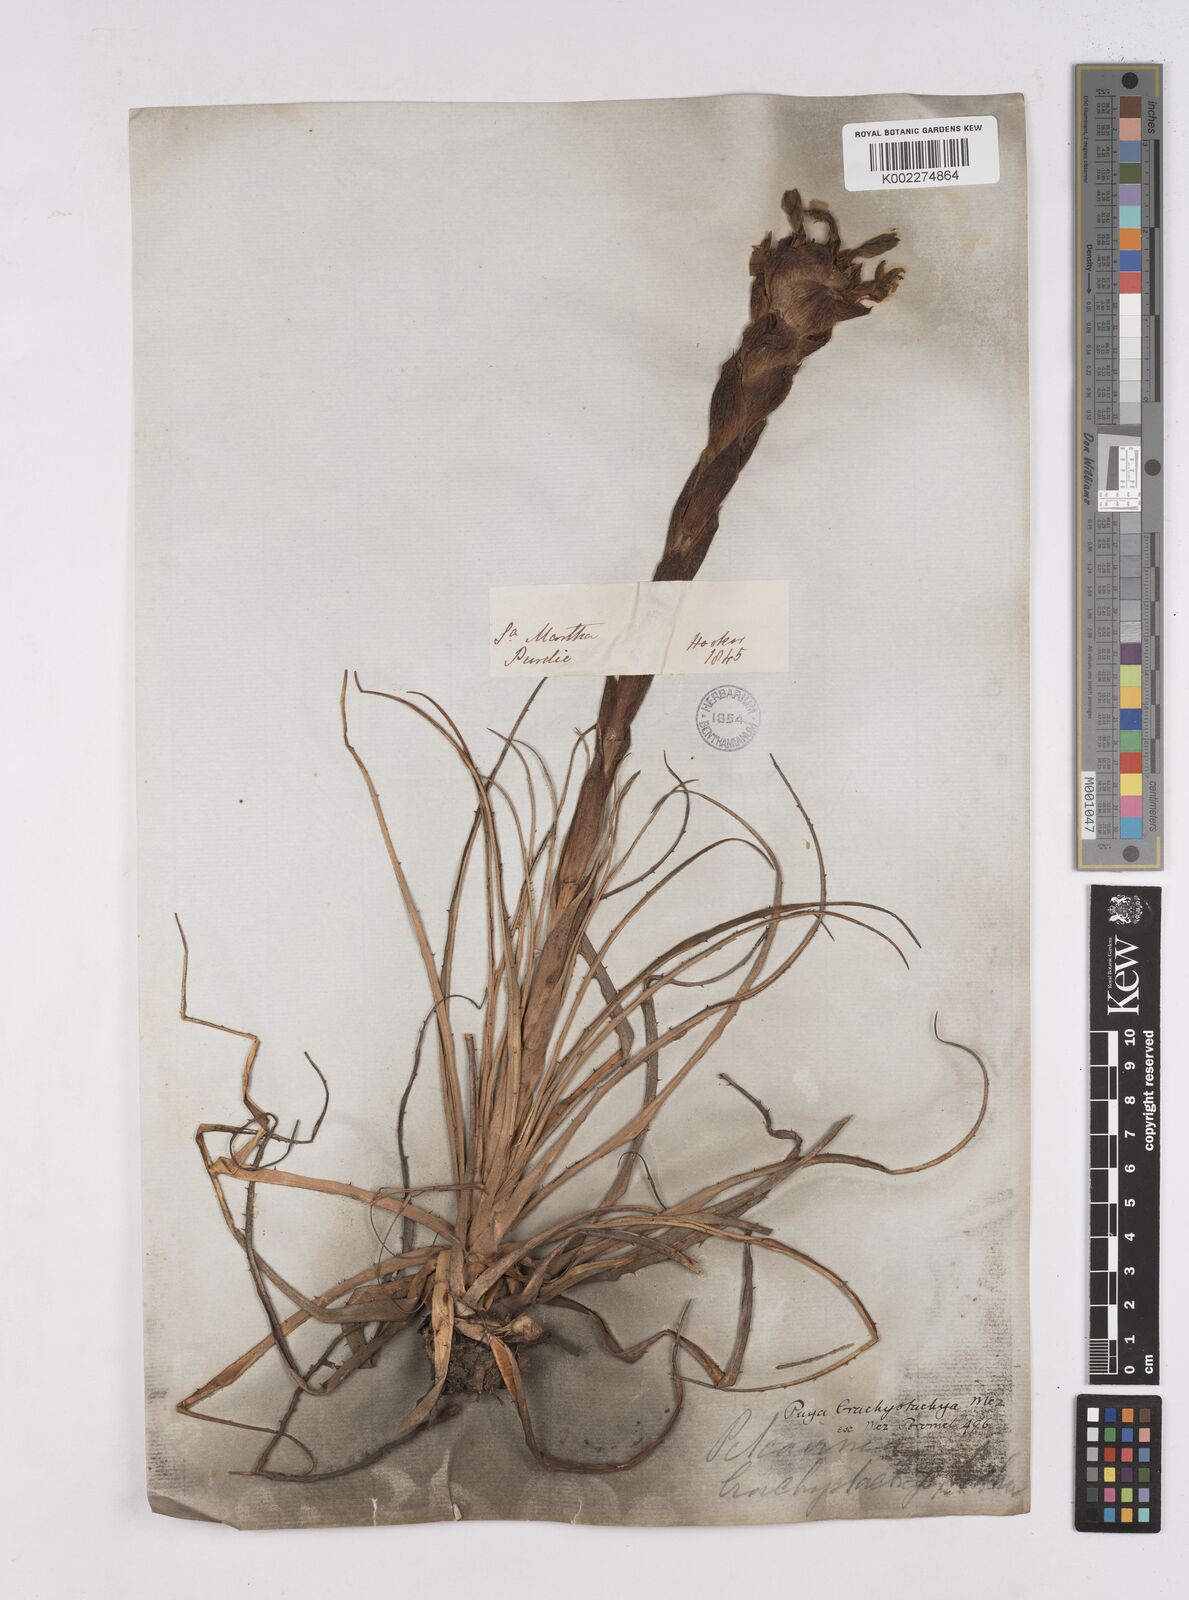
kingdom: Plantae
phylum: Tracheophyta
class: Liliopsida
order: Poales
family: Bromeliaceae
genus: Puya
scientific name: Puya brachystachya
